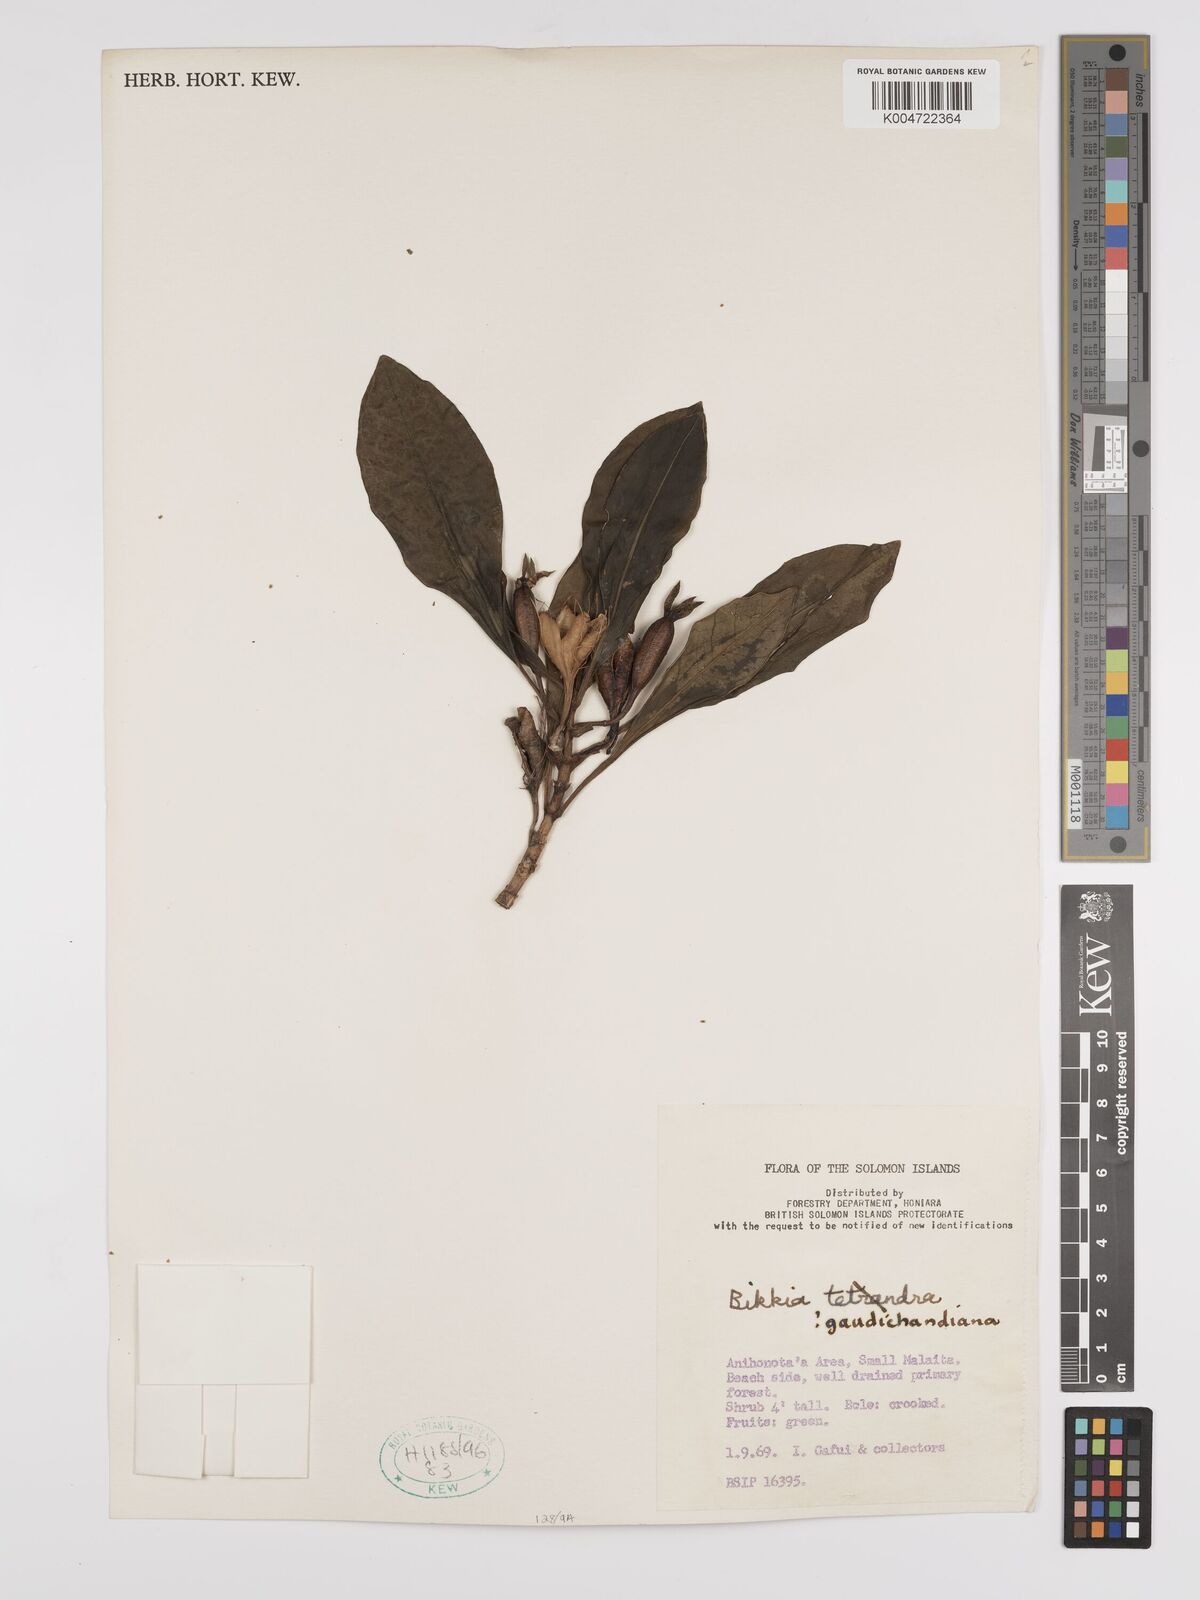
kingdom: Plantae
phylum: Tracheophyta
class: Magnoliopsida
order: Gentianales
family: Rubiaceae
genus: Bikkia
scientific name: Bikkia gaudichaudiana
